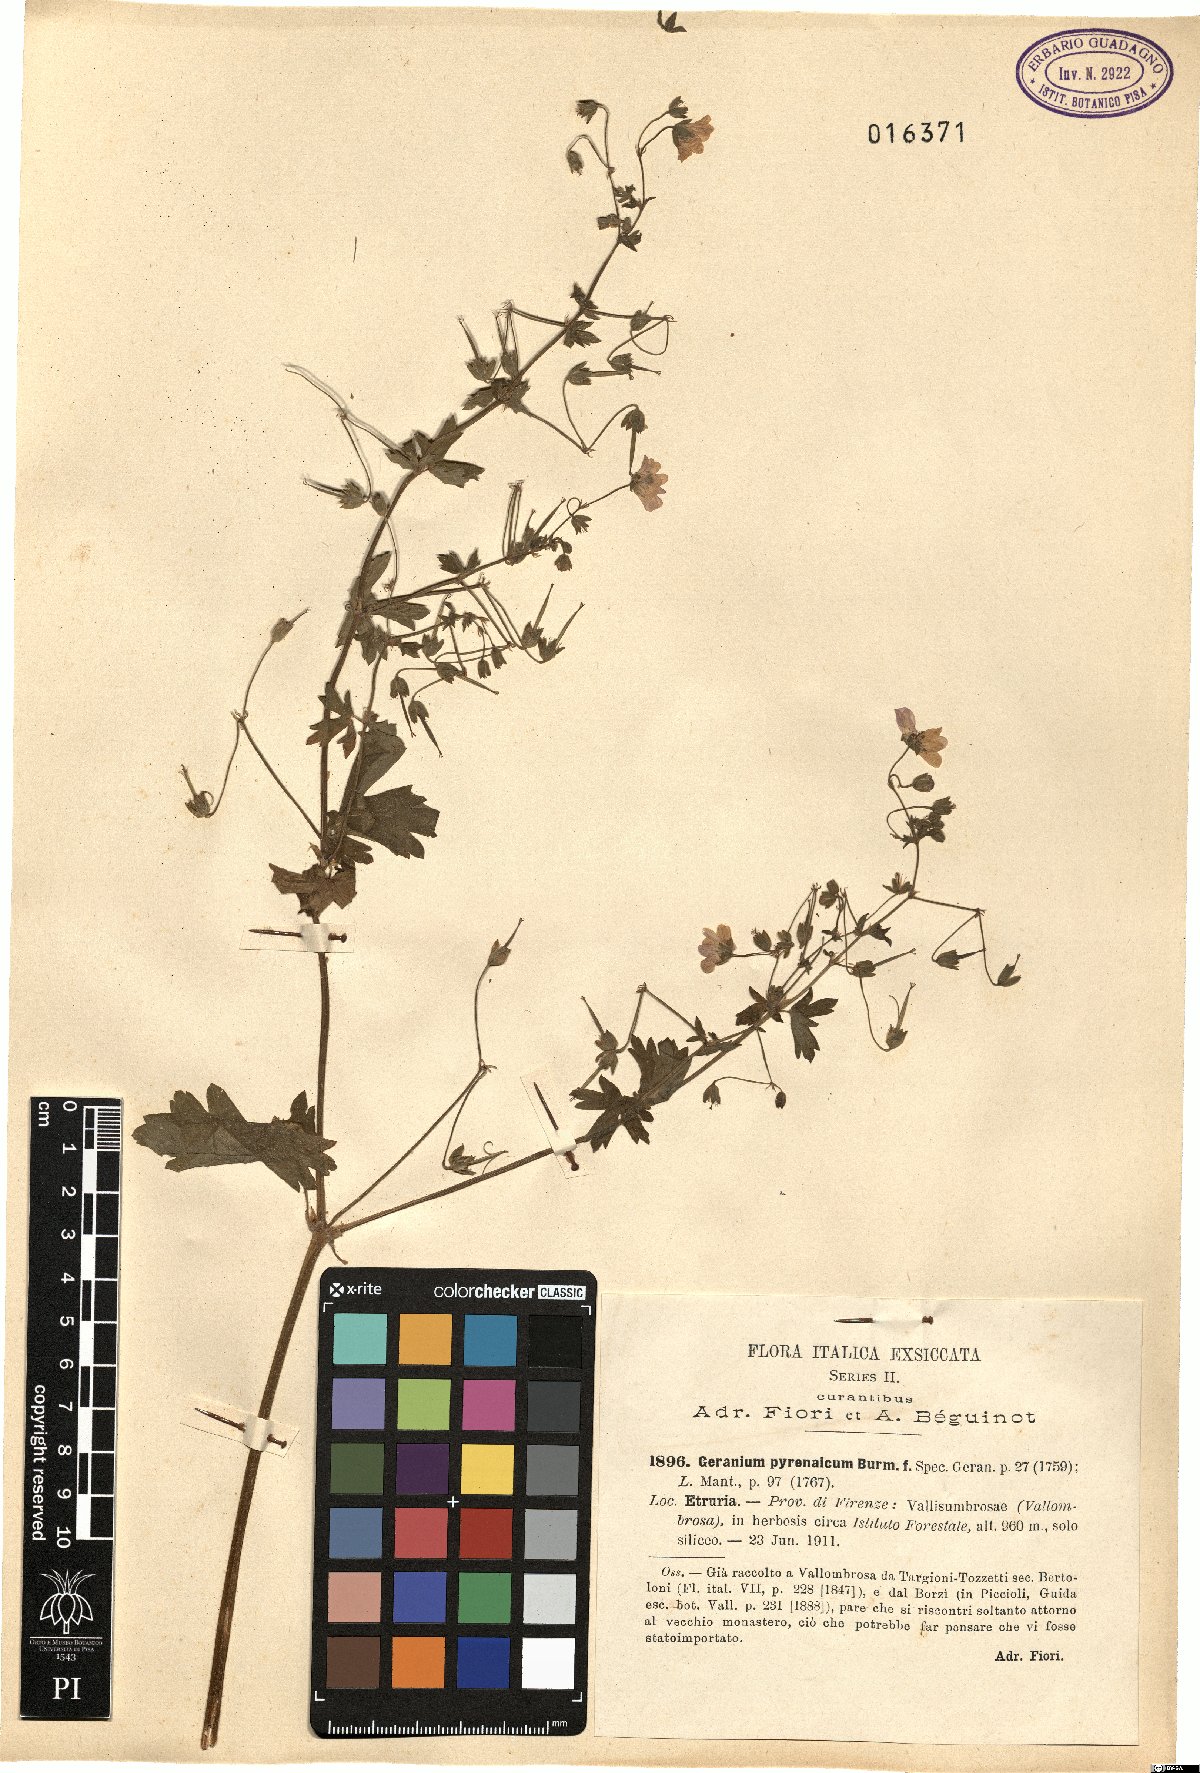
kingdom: Plantae
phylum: Tracheophyta
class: Magnoliopsida
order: Geraniales
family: Geraniaceae
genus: Geranium
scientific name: Geranium pyrenaicum
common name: Hedgerow crane's-bill
